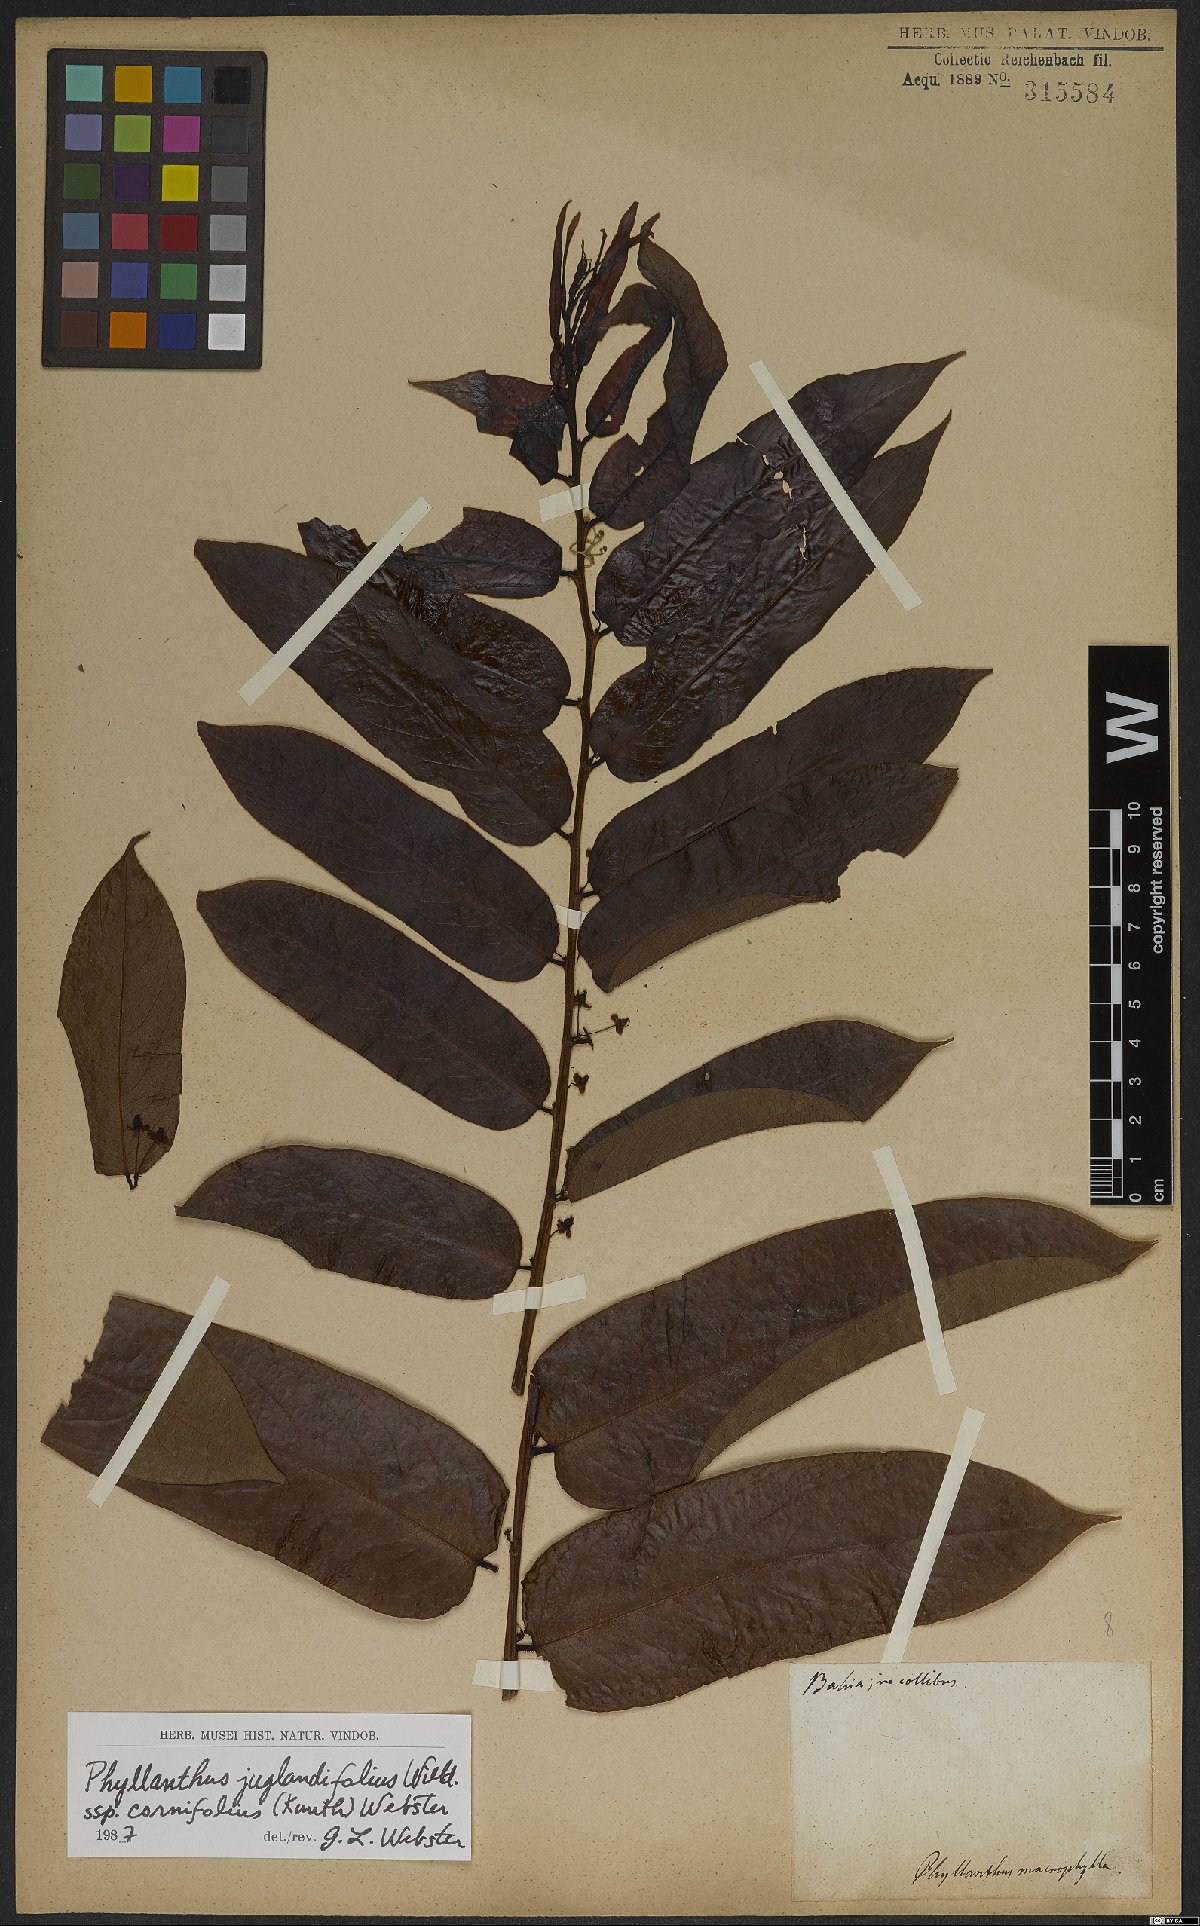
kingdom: Plantae
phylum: Tracheophyta
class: Magnoliopsida
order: Malpighiales
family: Phyllanthaceae
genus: Phyllanthus
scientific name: Phyllanthus juglandifolius
